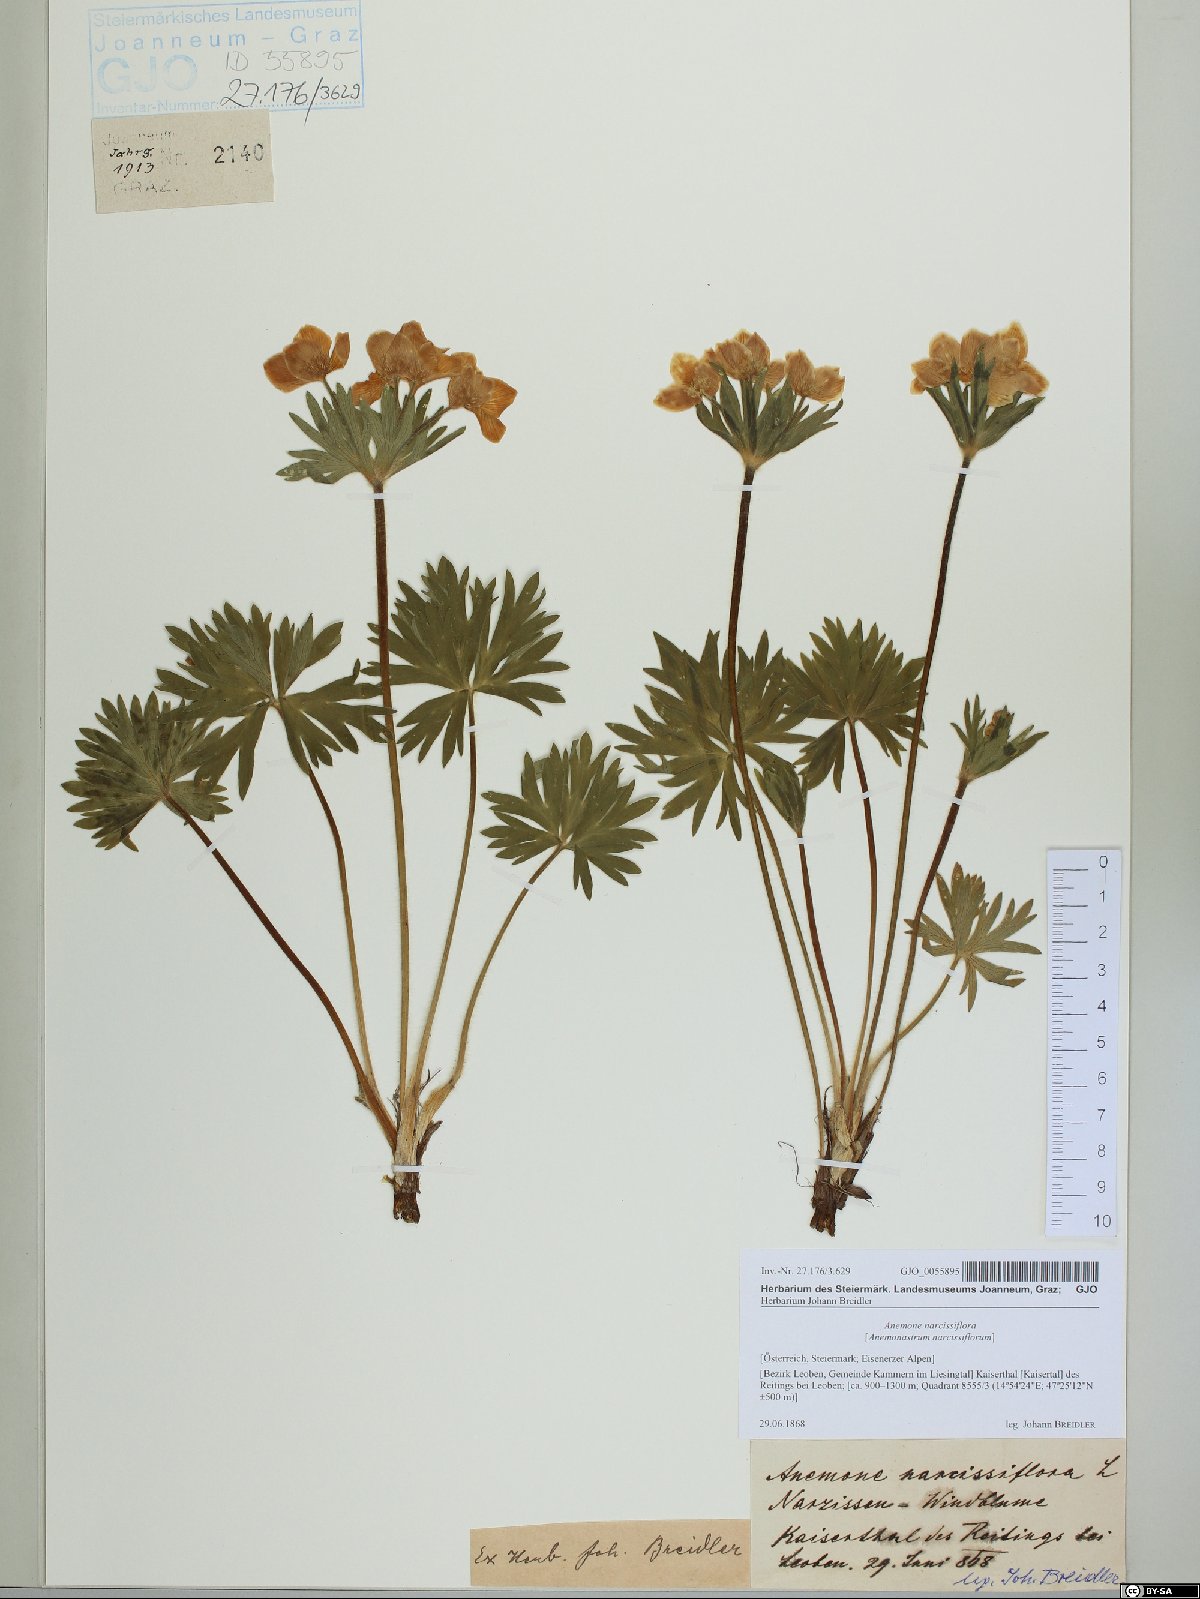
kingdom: Plantae
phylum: Tracheophyta
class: Magnoliopsida
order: Ranunculales
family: Ranunculaceae
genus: Anemonastrum
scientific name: Anemonastrum narcissiflorum
